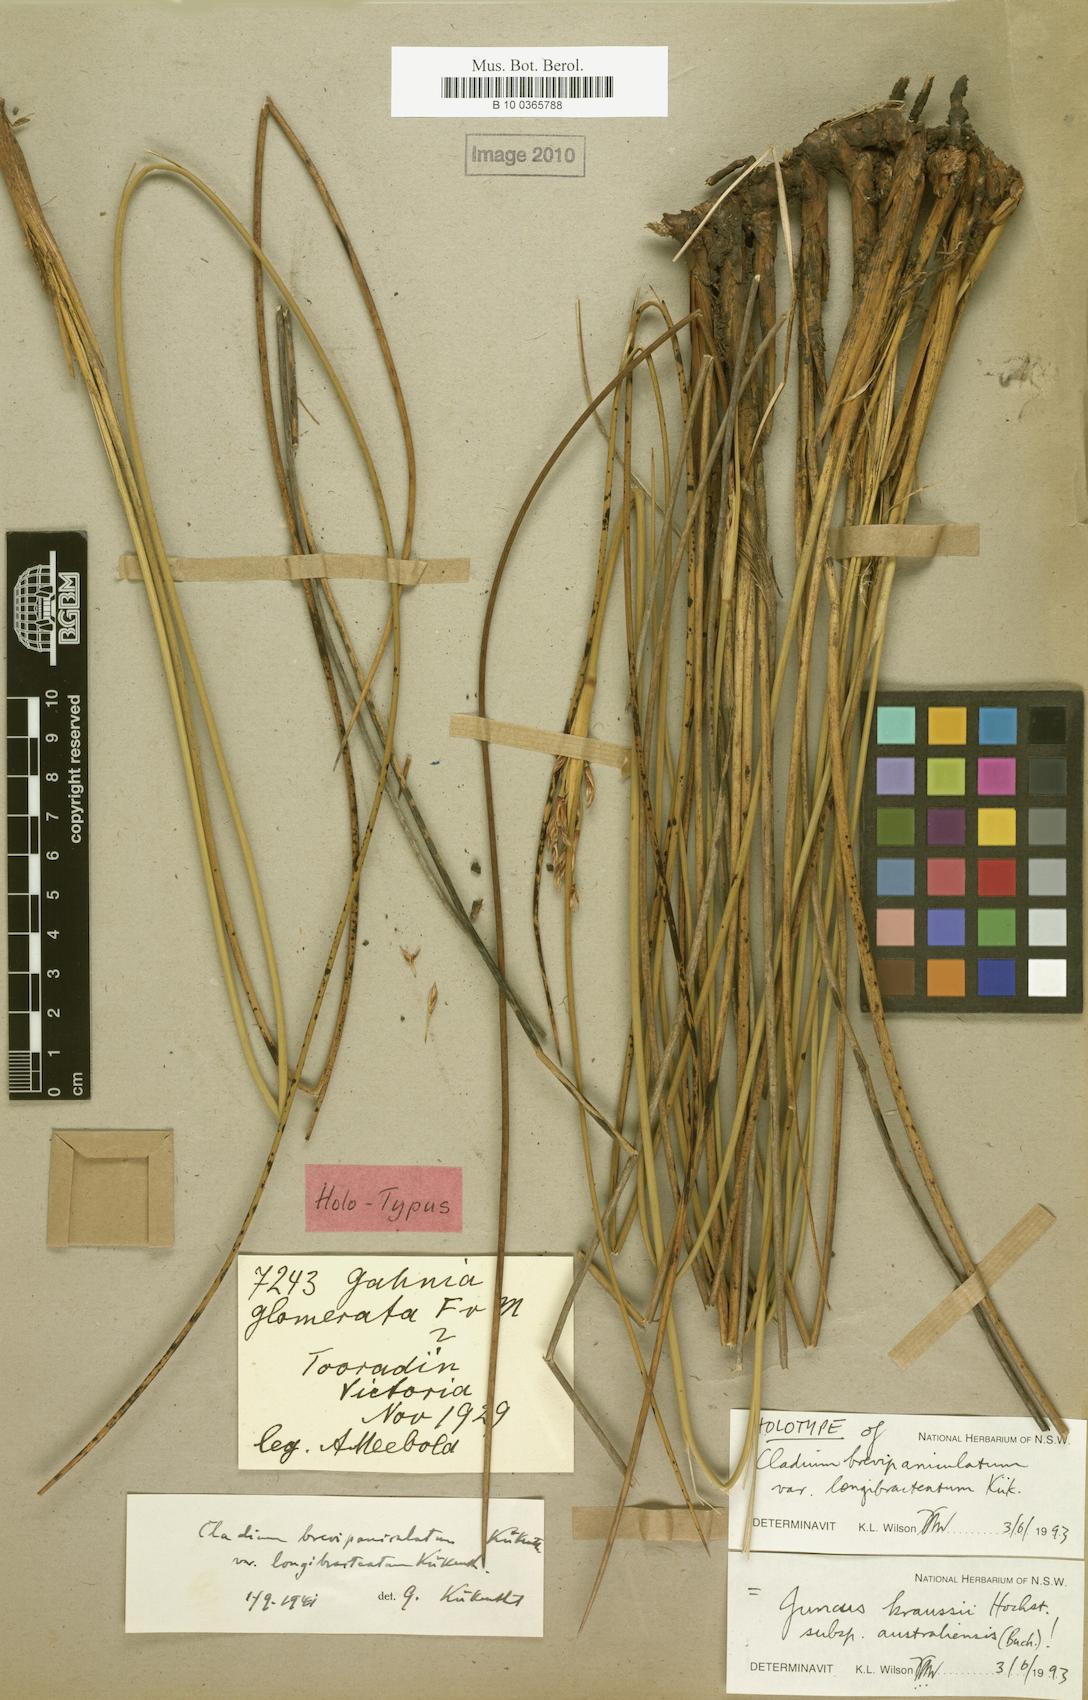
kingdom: Plantae
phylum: Tracheophyta
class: Liliopsida
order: Poales
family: Juncaceae
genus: Juncus
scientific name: Juncus kraussii
